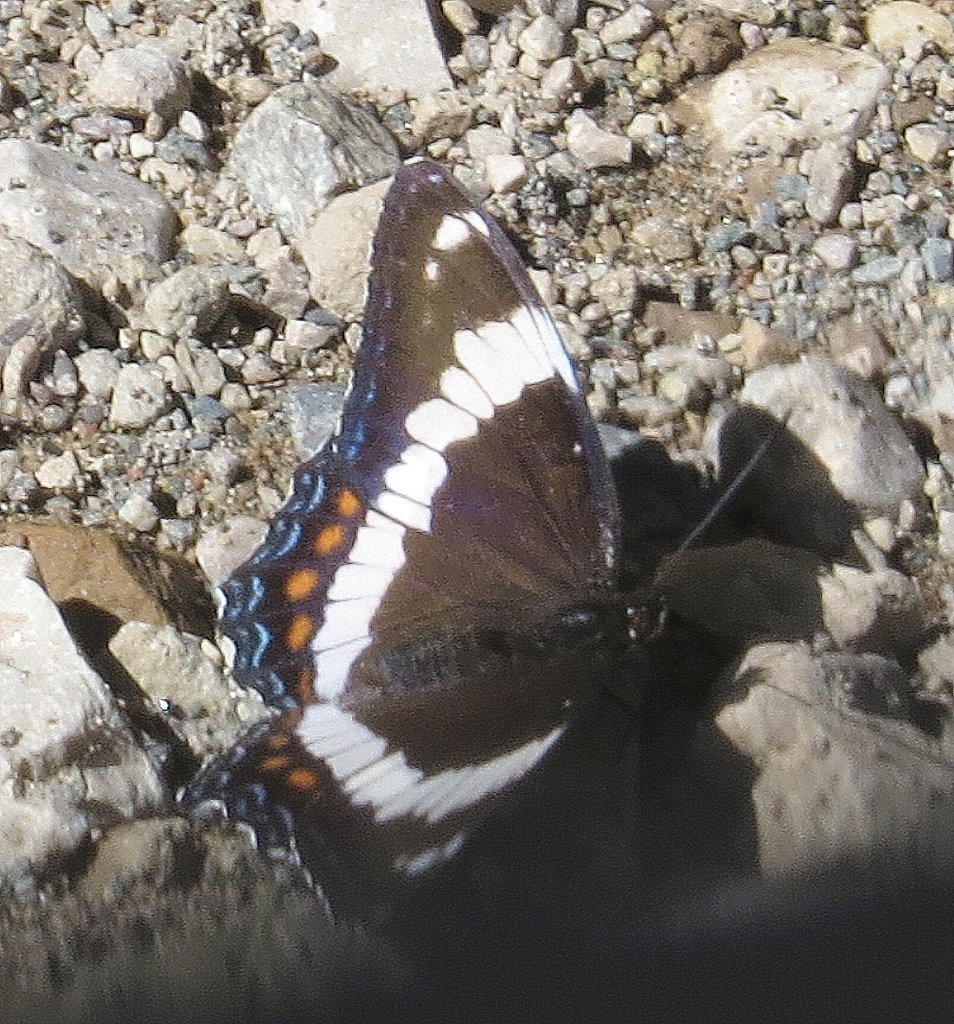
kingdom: Animalia
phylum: Arthropoda
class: Insecta
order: Lepidoptera
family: Nymphalidae
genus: Limenitis
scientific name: Limenitis arthemis
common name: Red-spotted Admiral
